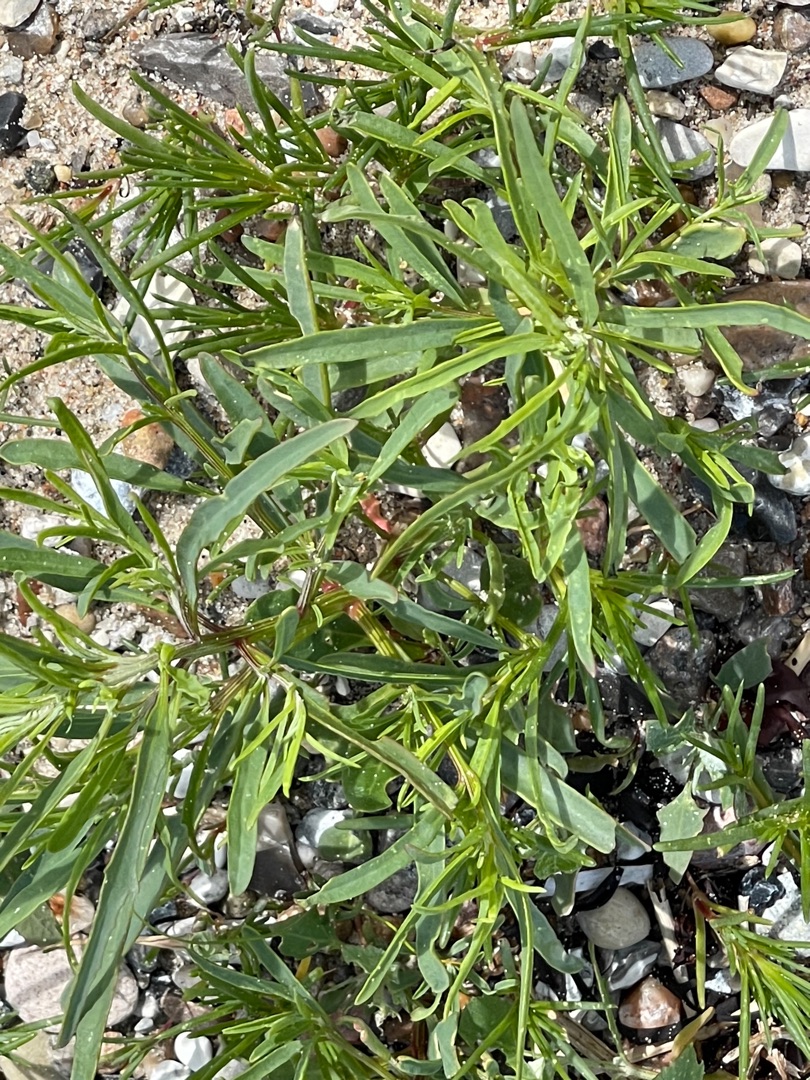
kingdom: Plantae
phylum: Tracheophyta
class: Magnoliopsida
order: Caryophyllales
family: Amaranthaceae
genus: Atriplex
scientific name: Atriplex littoralis
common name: Strand-mælde
